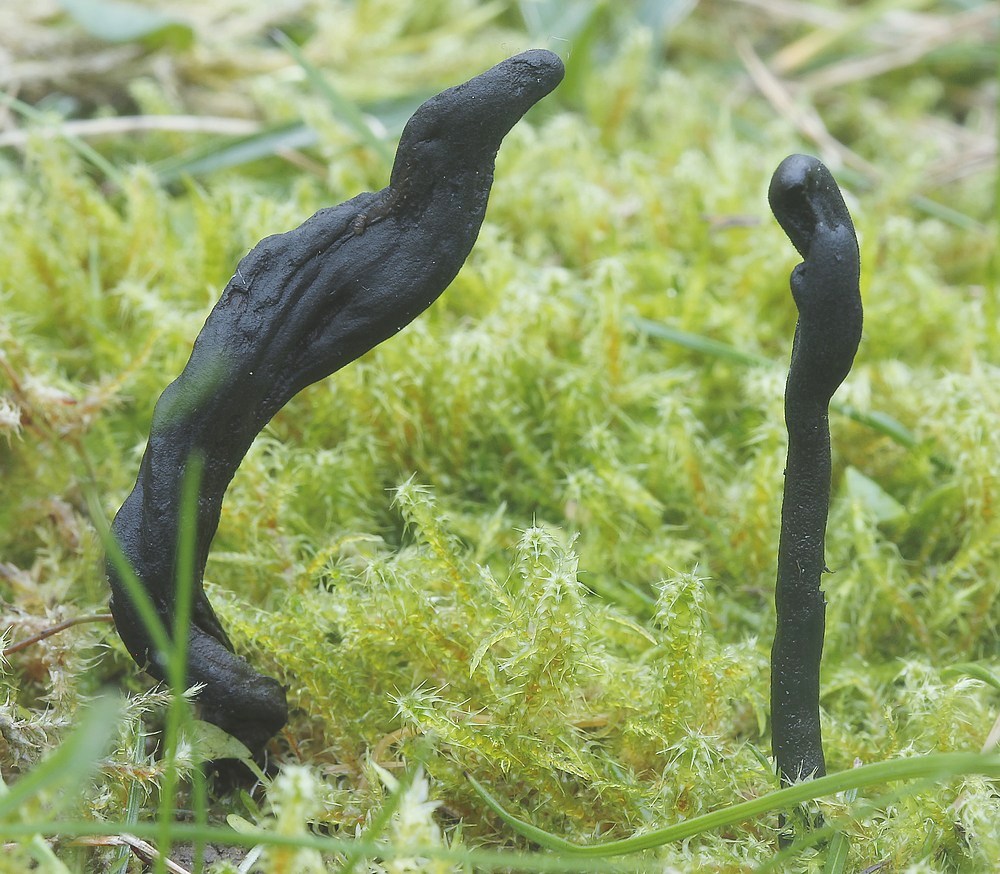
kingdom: Fungi
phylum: Ascomycota
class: Geoglossomycetes
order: Geoglossales
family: Geoglossaceae
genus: Geoglossum
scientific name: Geoglossum umbratile
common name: slank jordtunge
